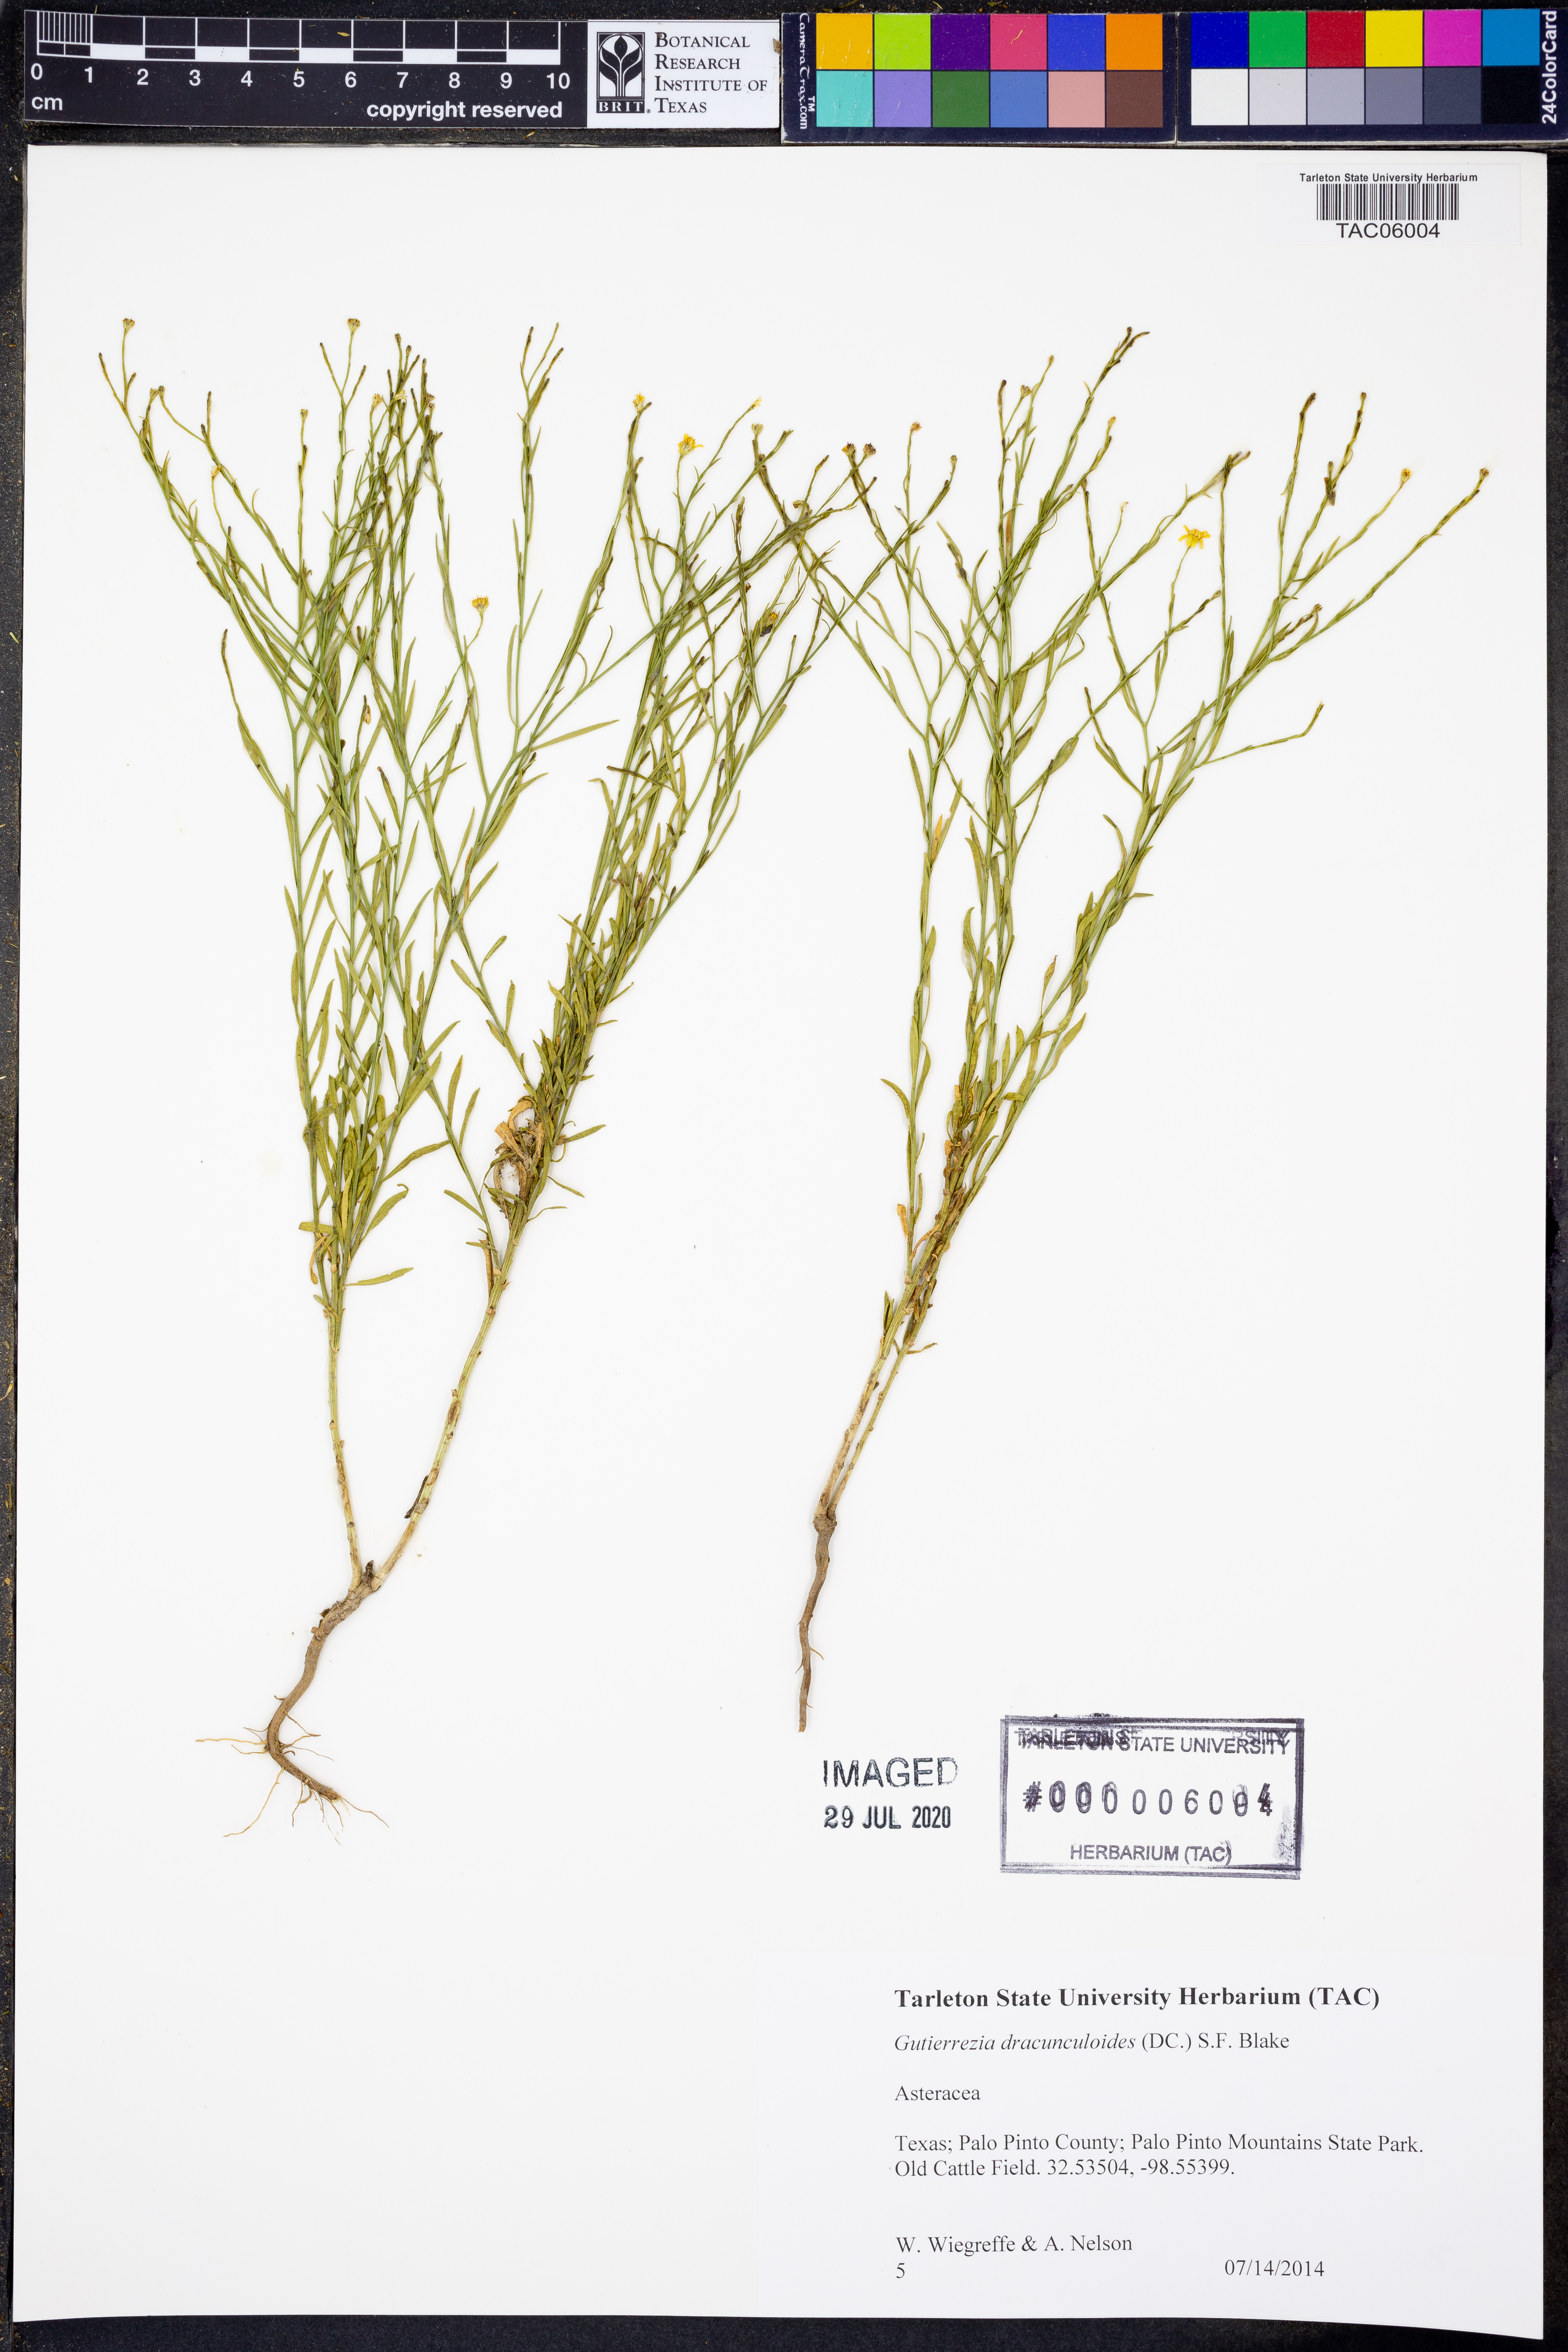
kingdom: Plantae
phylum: Tracheophyta
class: Magnoliopsida
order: Asterales
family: Asteraceae
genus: Amphiachyris
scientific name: Amphiachyris dracunculoides
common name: Broomweed
